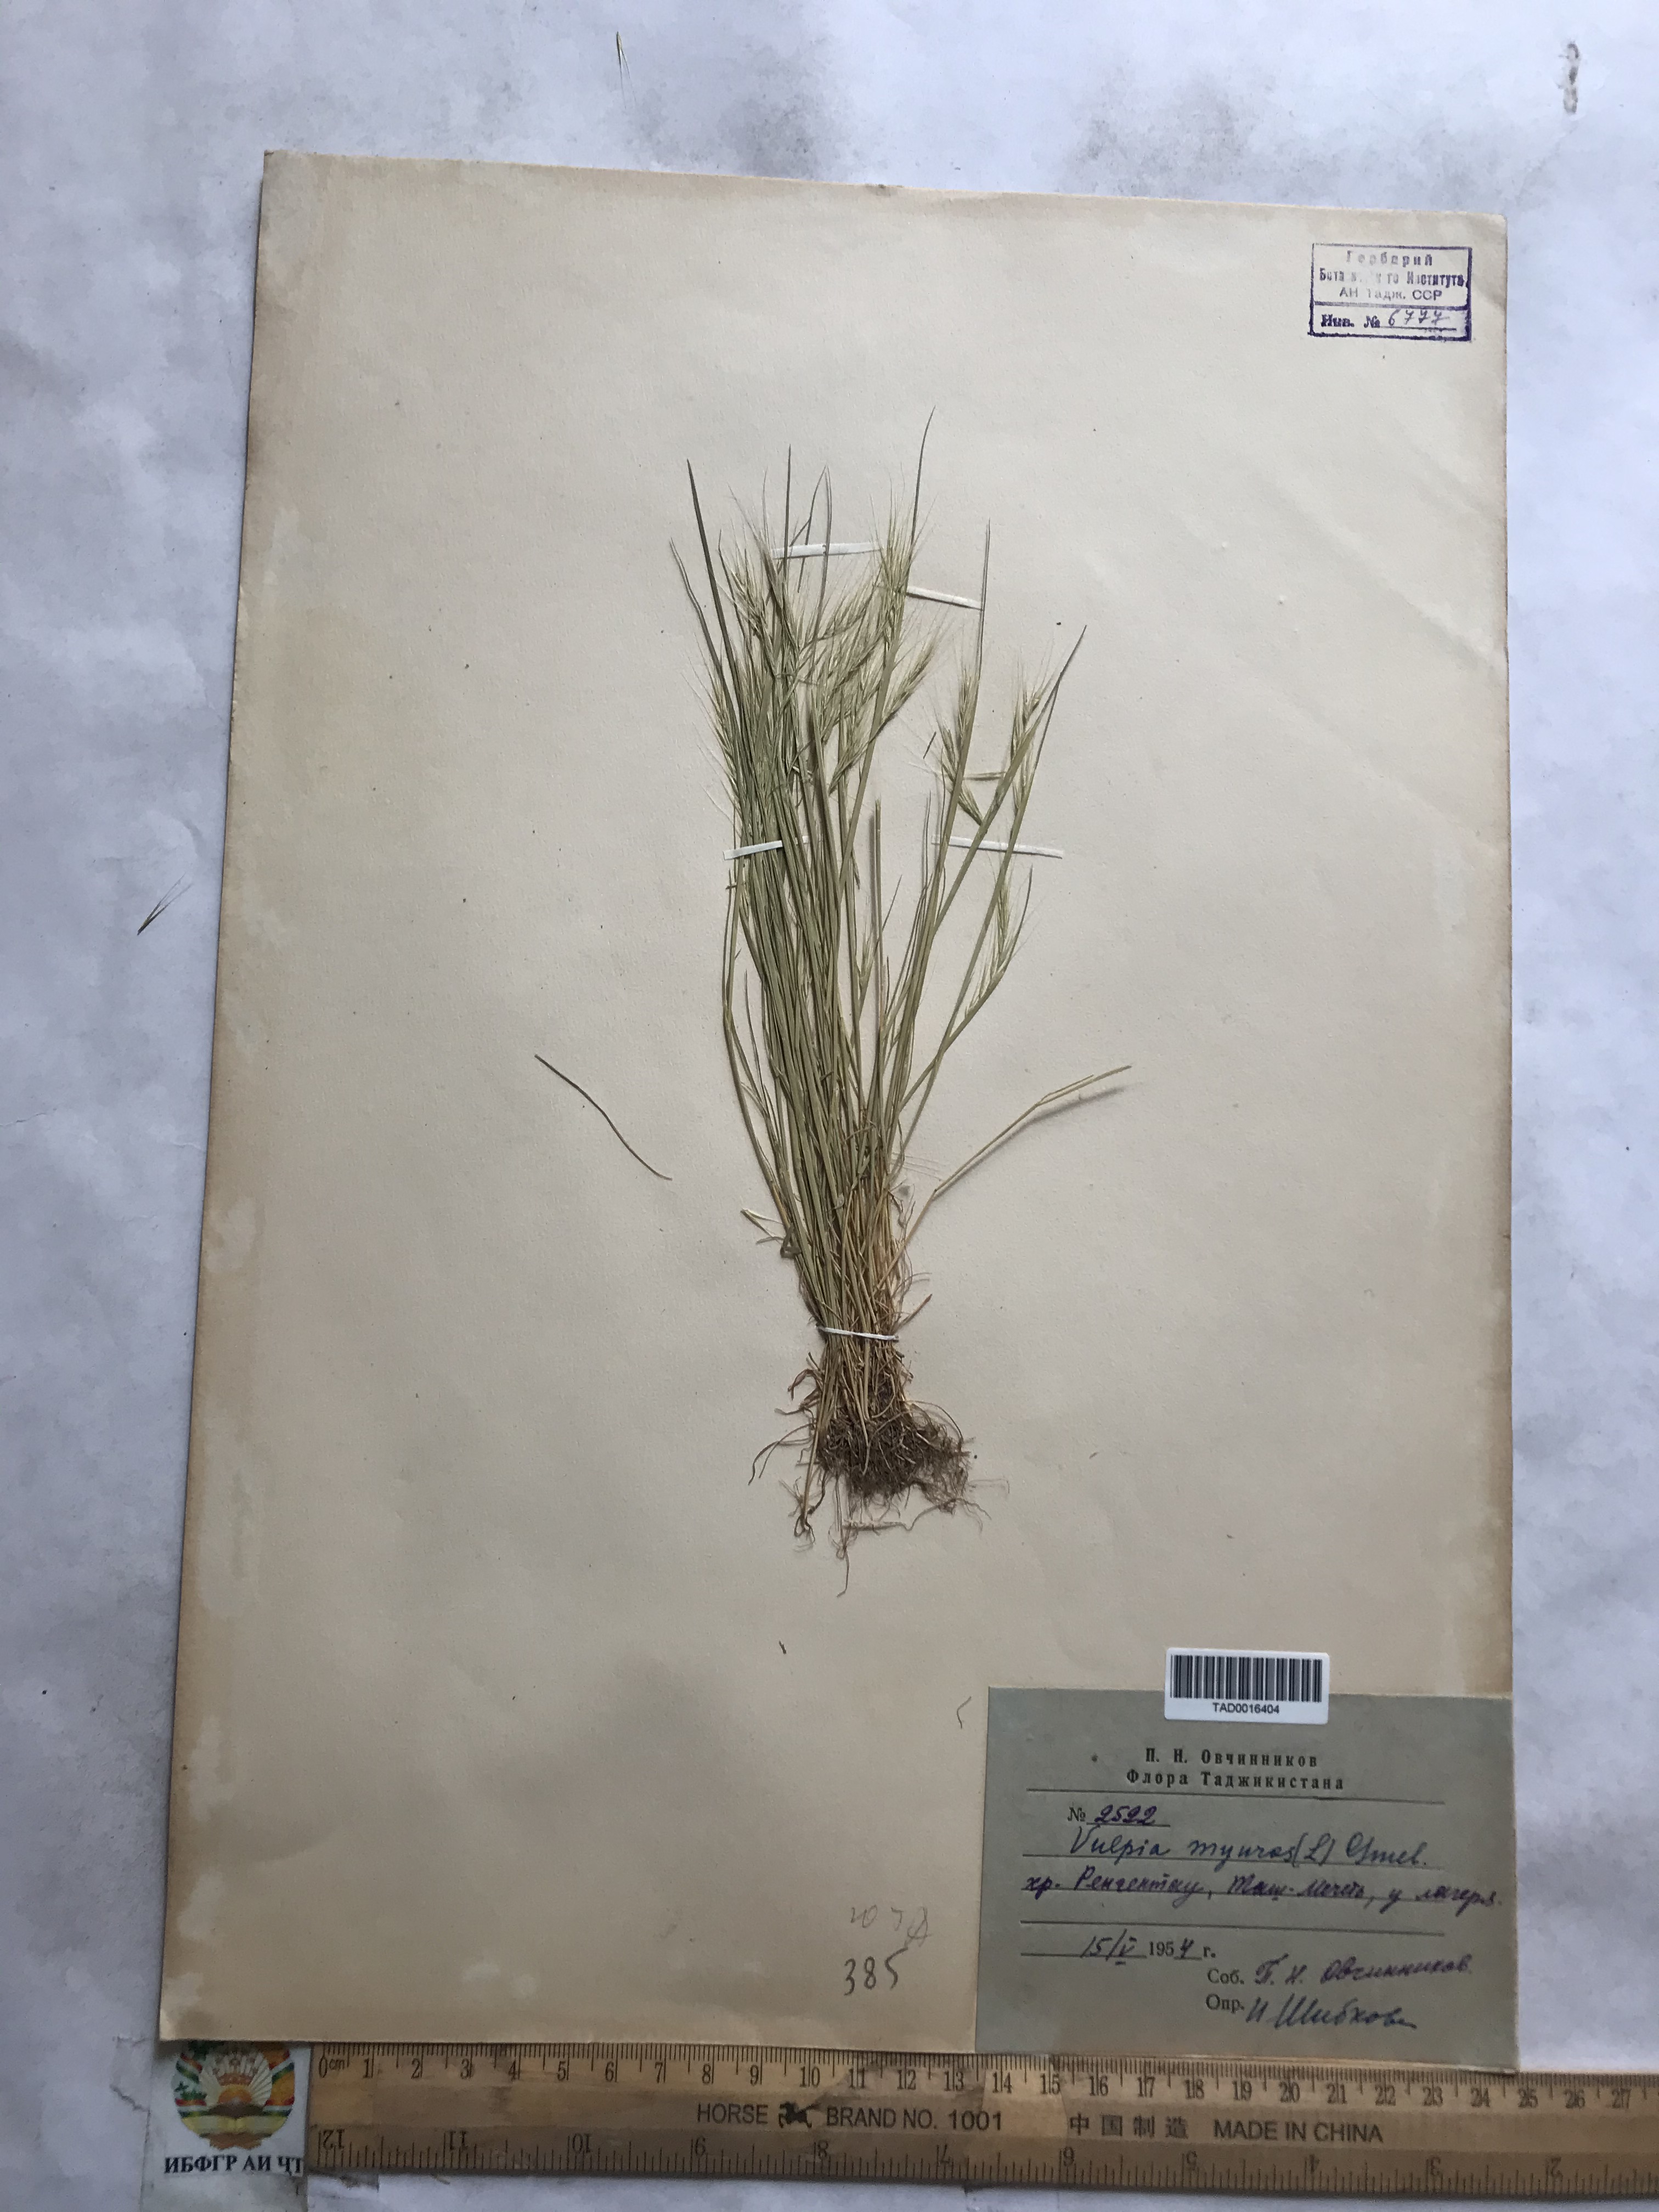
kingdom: Plantae
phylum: Tracheophyta
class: Liliopsida
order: Poales
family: Poaceae
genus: Festuca
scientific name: Festuca myuros
